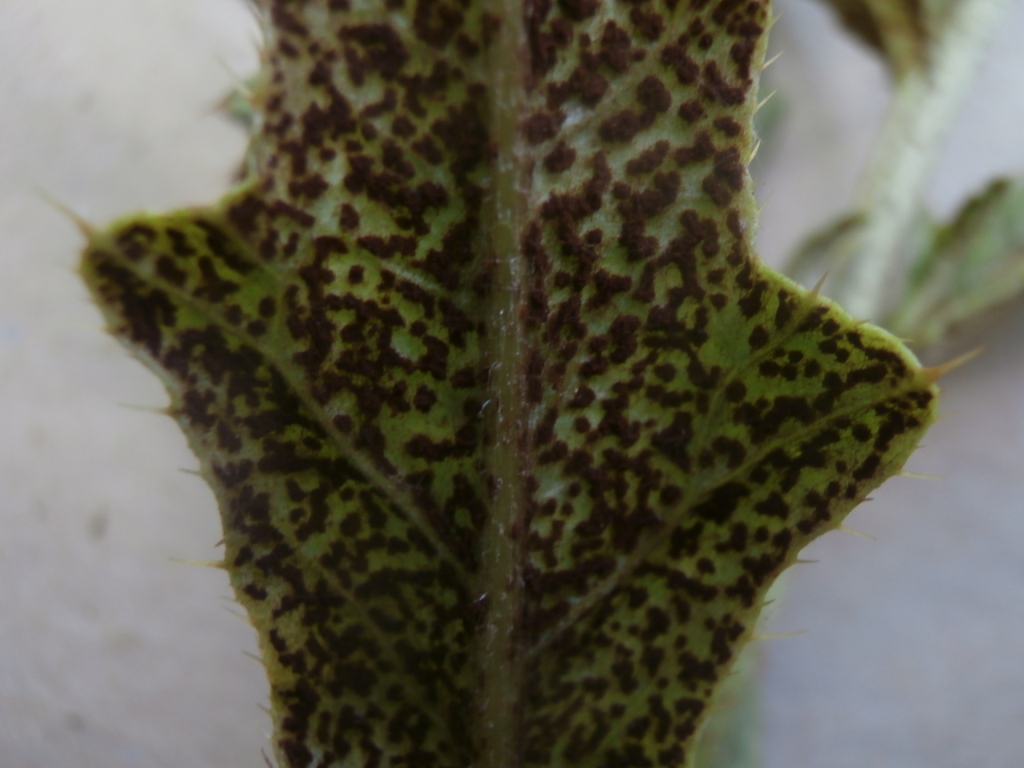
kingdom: Fungi
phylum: Basidiomycota
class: Pucciniomycetes
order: Pucciniales
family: Pucciniaceae
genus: Puccinia
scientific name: Puccinia suaveolens
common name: tidsel-tvecellerust
